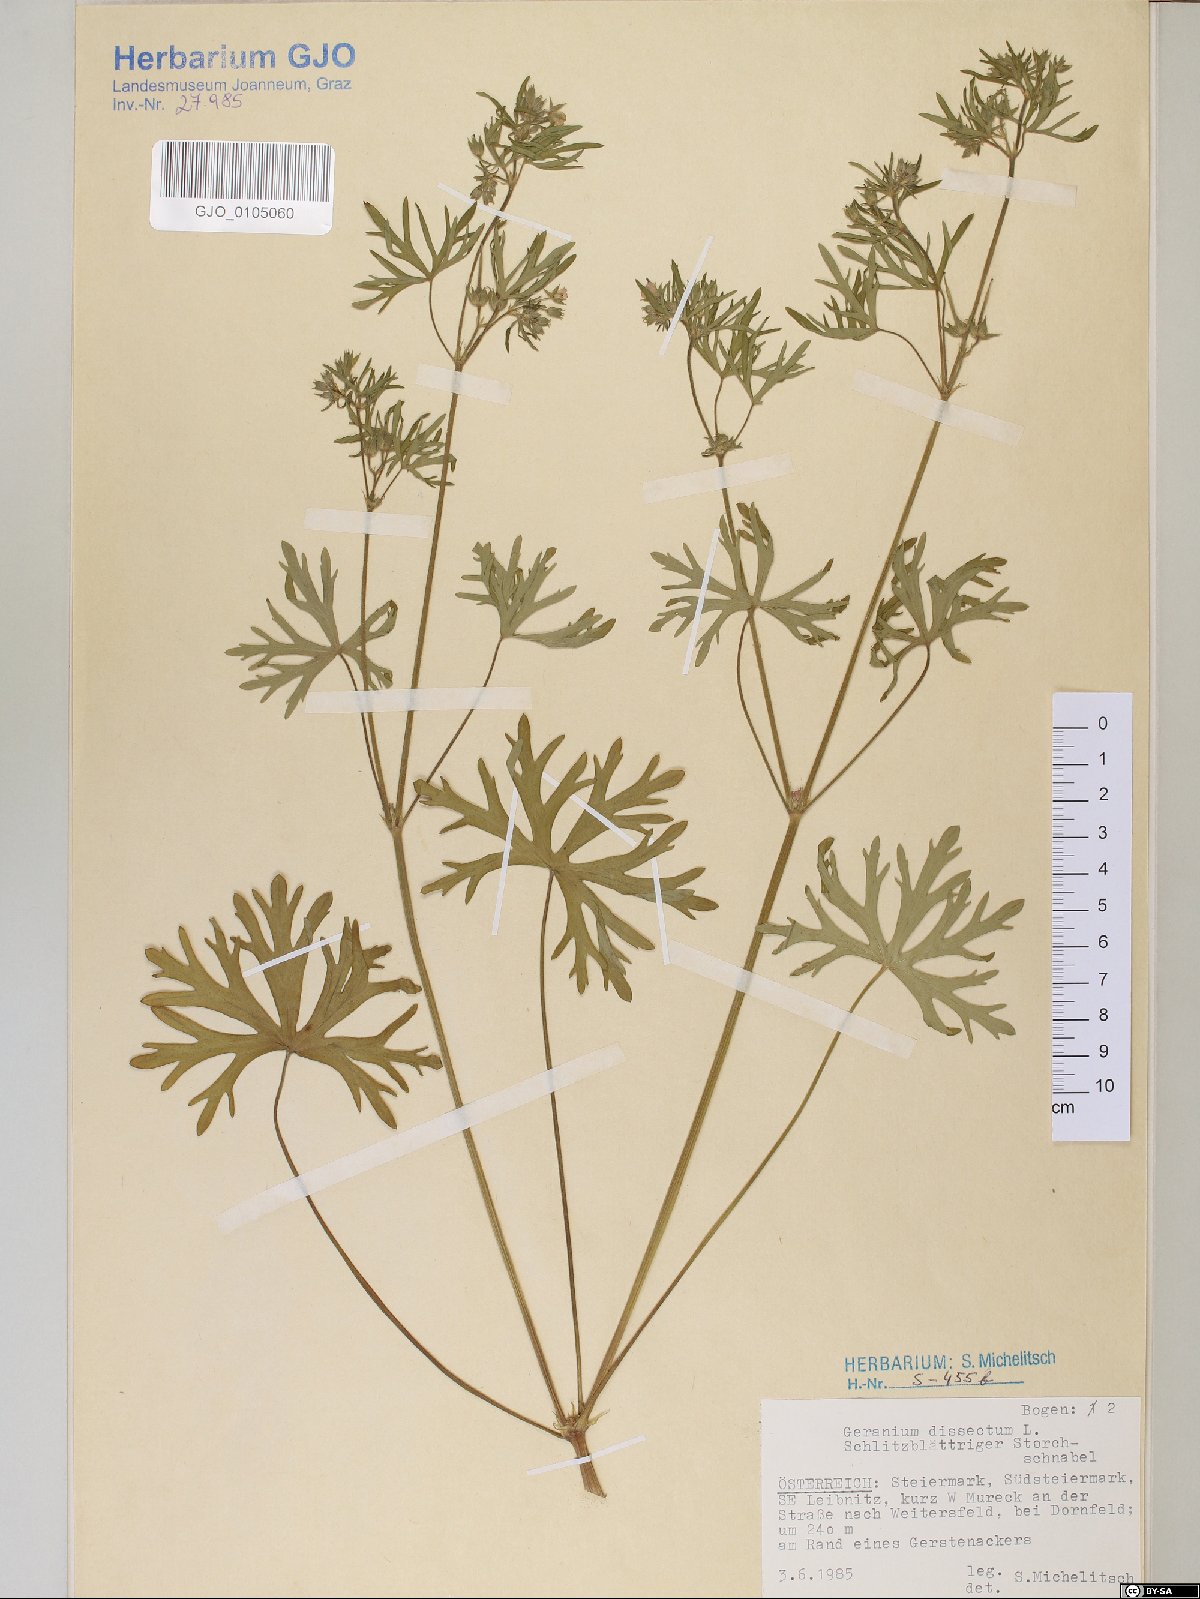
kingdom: Plantae
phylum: Tracheophyta
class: Magnoliopsida
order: Geraniales
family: Geraniaceae
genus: Geranium
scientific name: Geranium dissectum
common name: Cut-leaved crane's-bill
